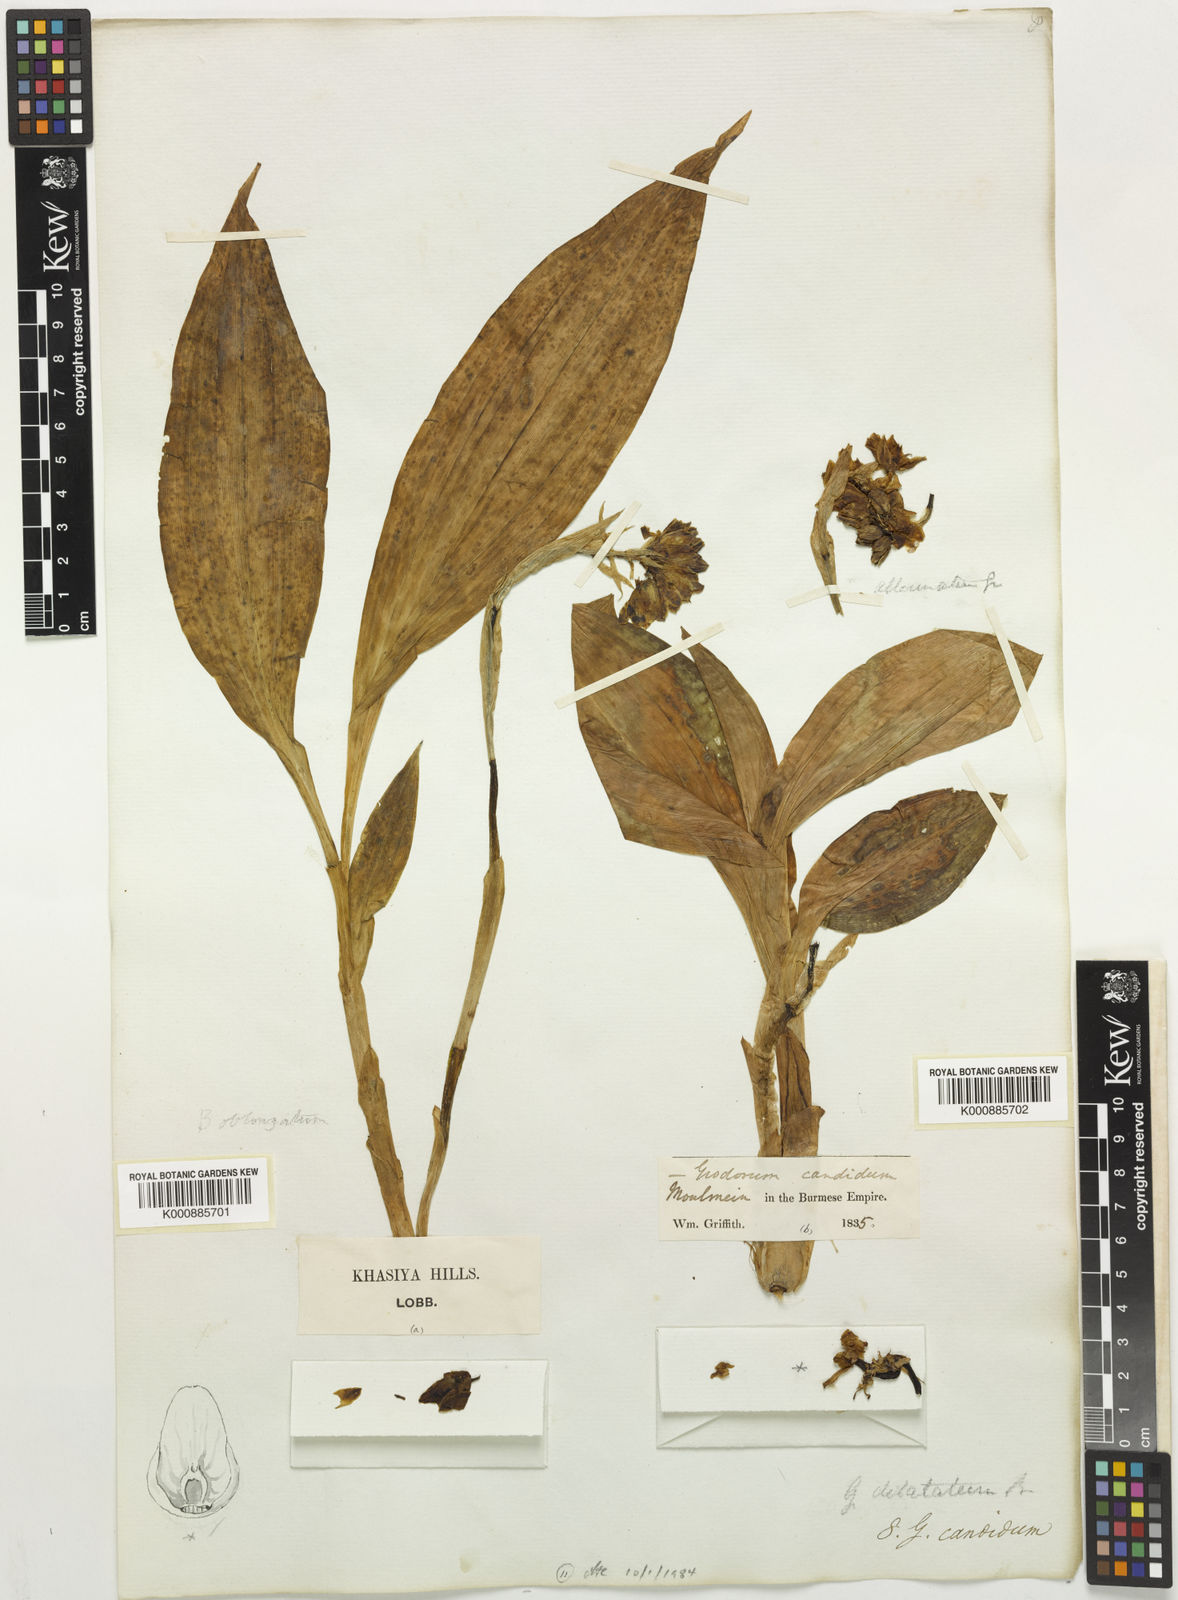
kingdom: Plantae
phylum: Tracheophyta
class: Liliopsida
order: Asparagales
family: Orchidaceae
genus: Geodorum
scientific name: Geodorum
